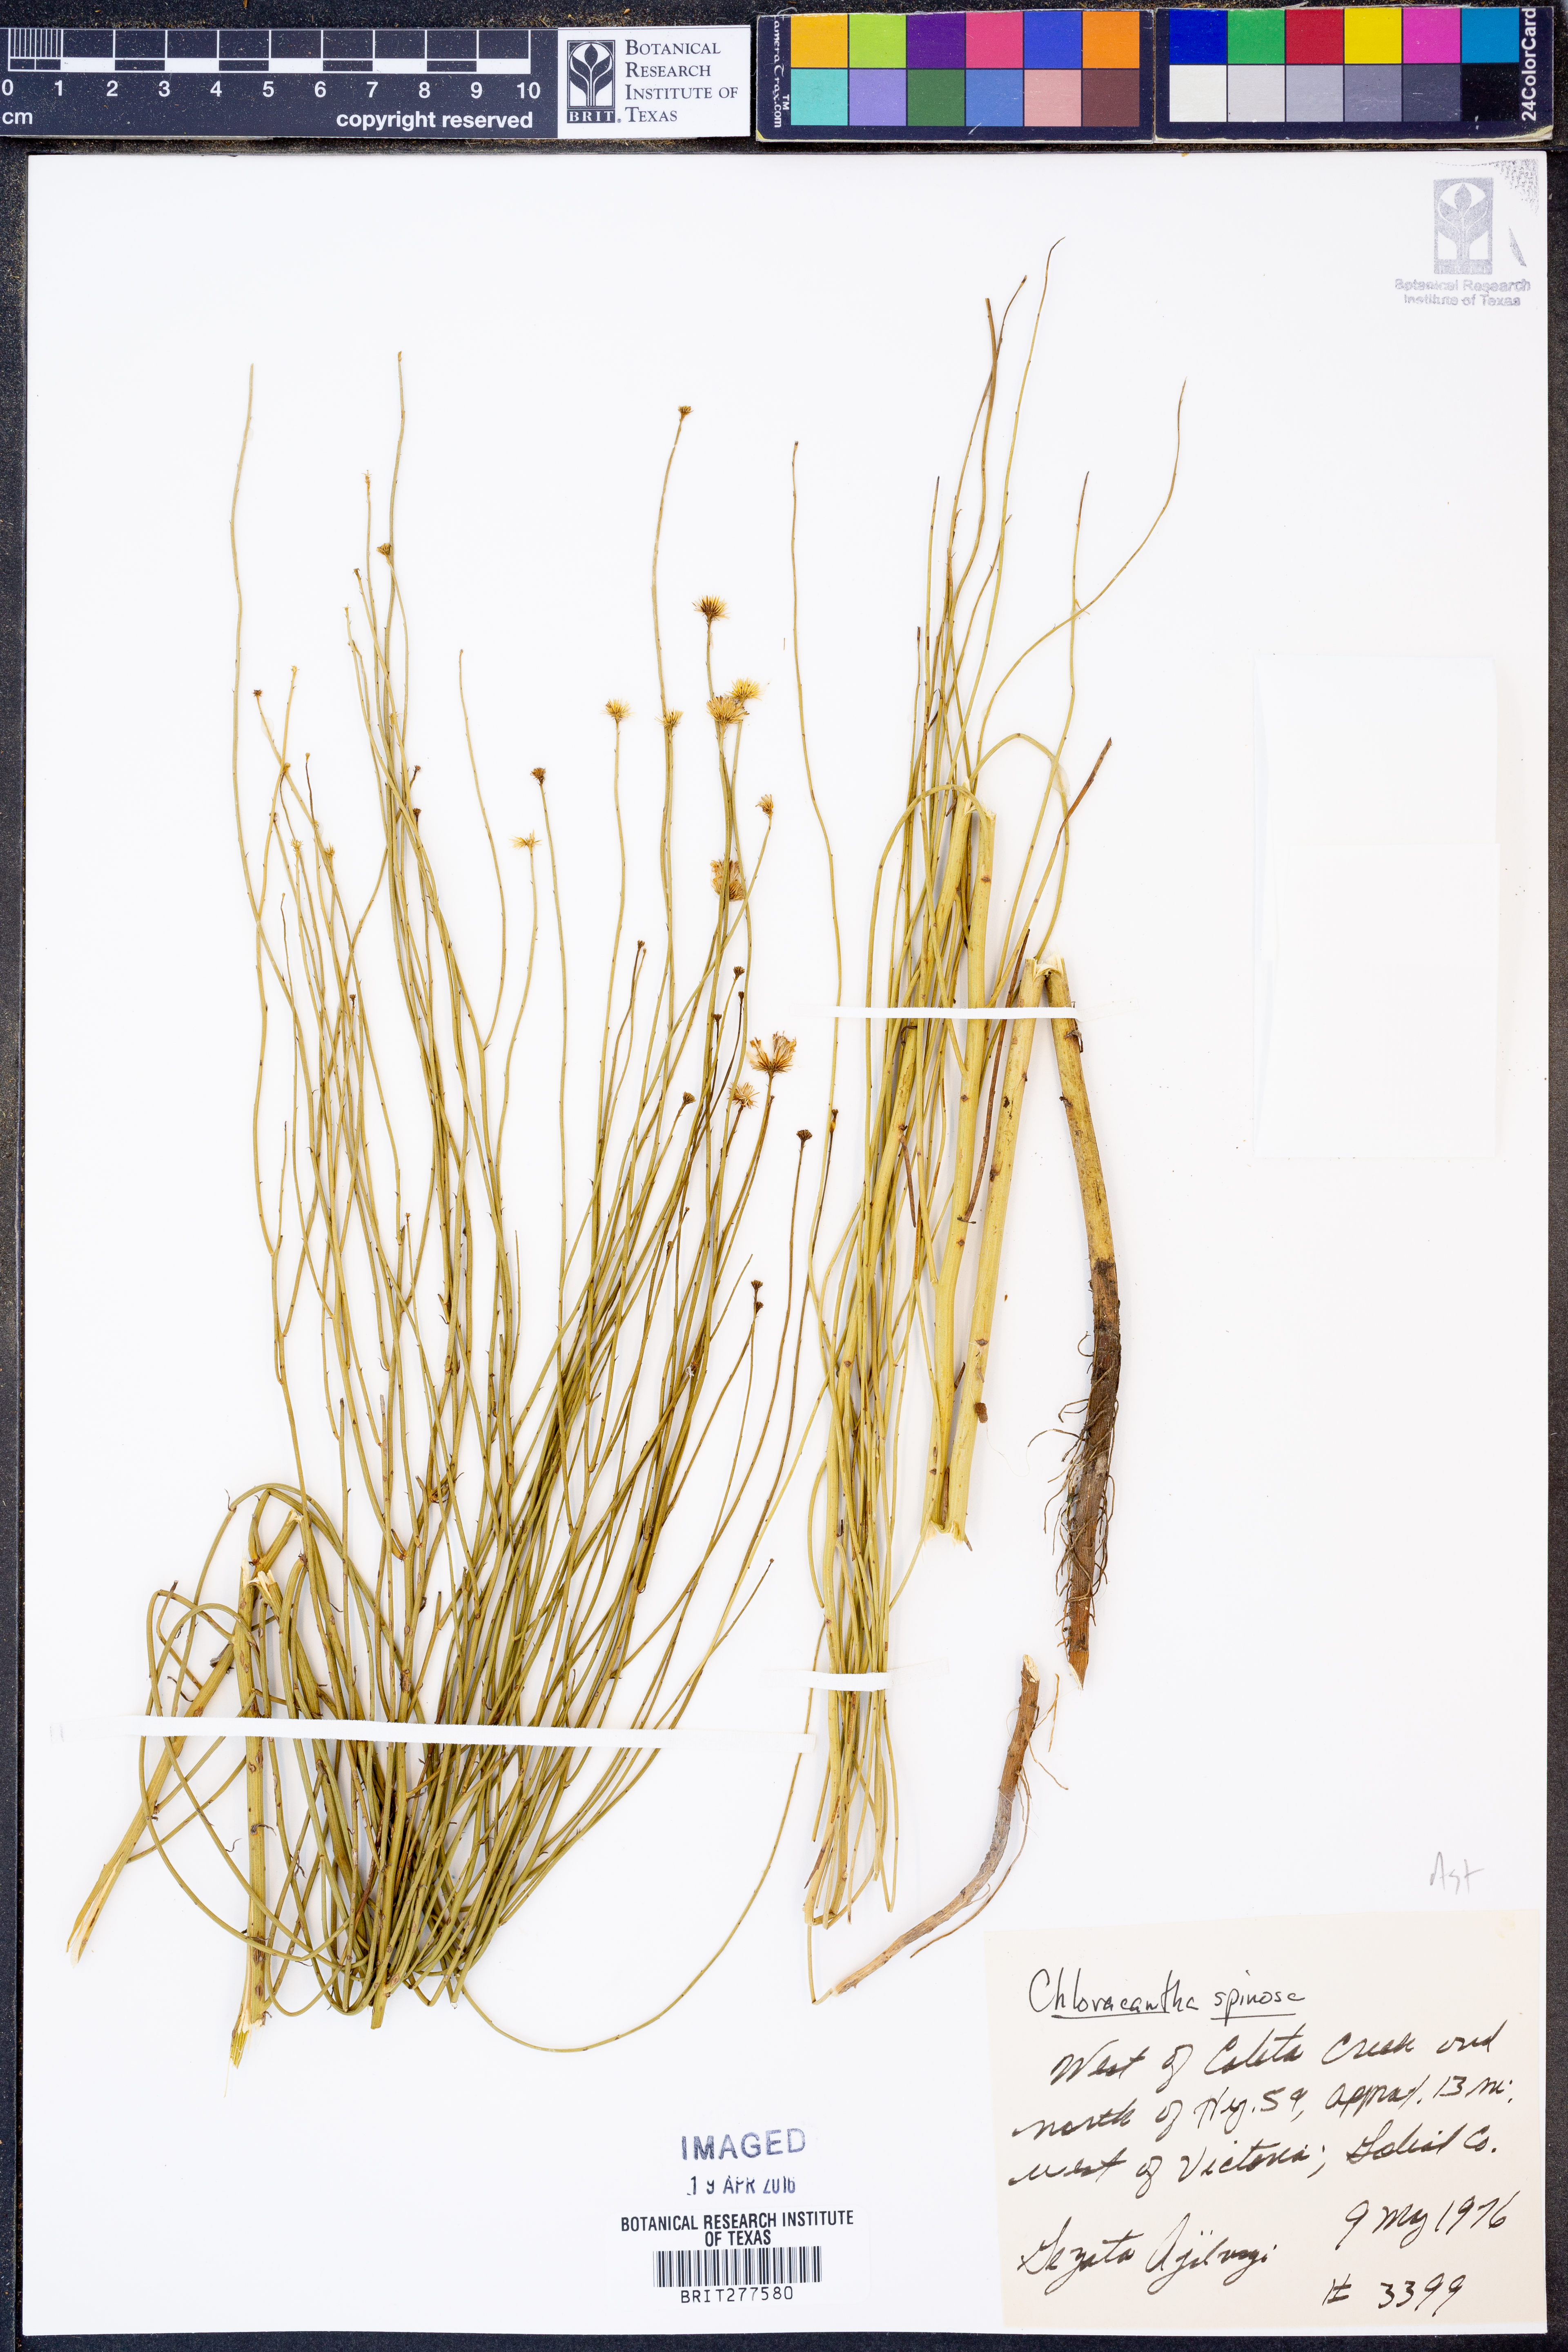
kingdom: Plantae
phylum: Tracheophyta
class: Magnoliopsida
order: Asterales
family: Asteraceae
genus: Chloracantha
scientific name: Chloracantha spinosa
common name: Mexican devilweed
